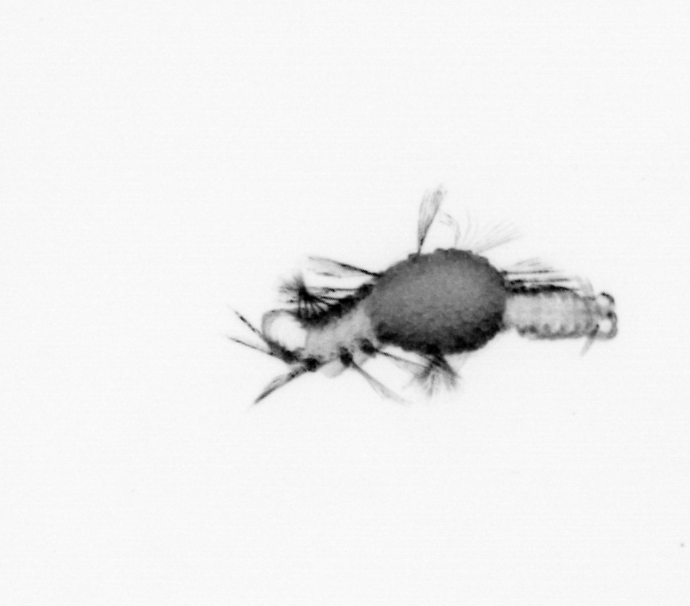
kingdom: Animalia
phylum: Annelida
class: Polychaeta
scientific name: Polychaeta
